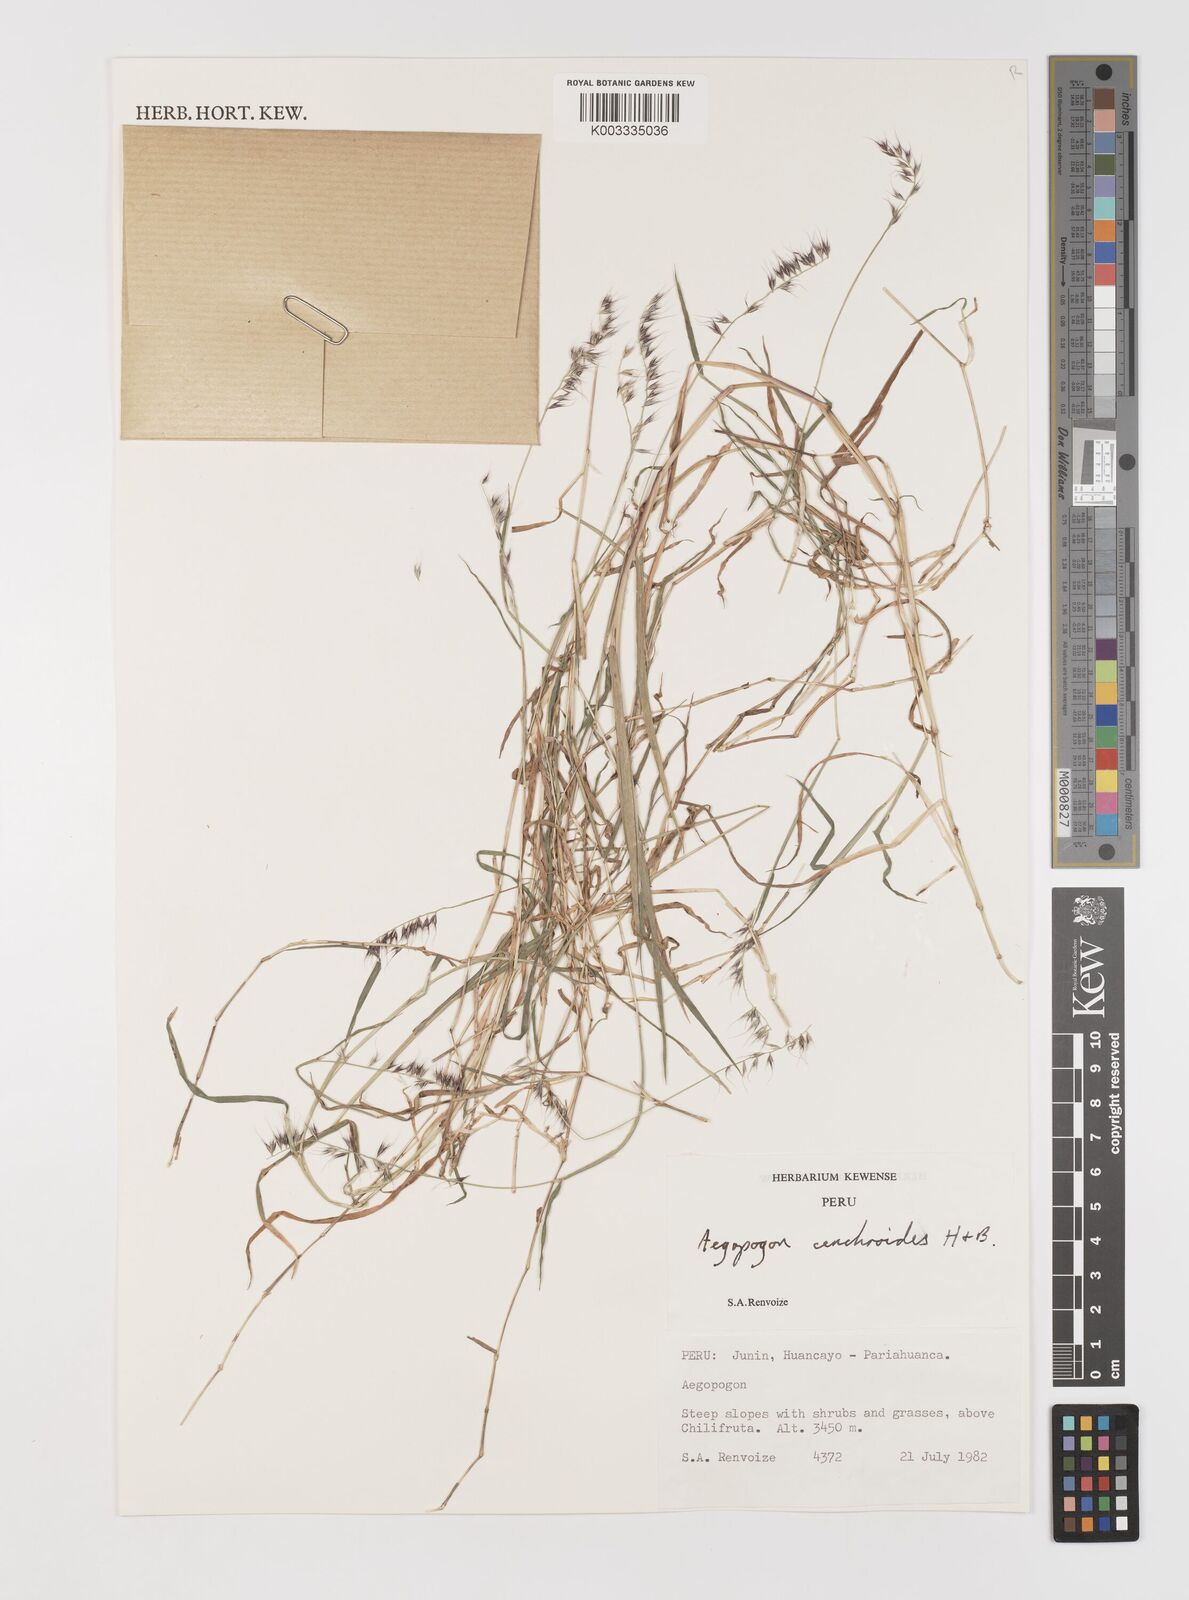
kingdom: Plantae
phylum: Tracheophyta
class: Liliopsida
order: Poales
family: Poaceae
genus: Muhlenbergia
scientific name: Muhlenbergia cenchroides
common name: Relaxgrass
